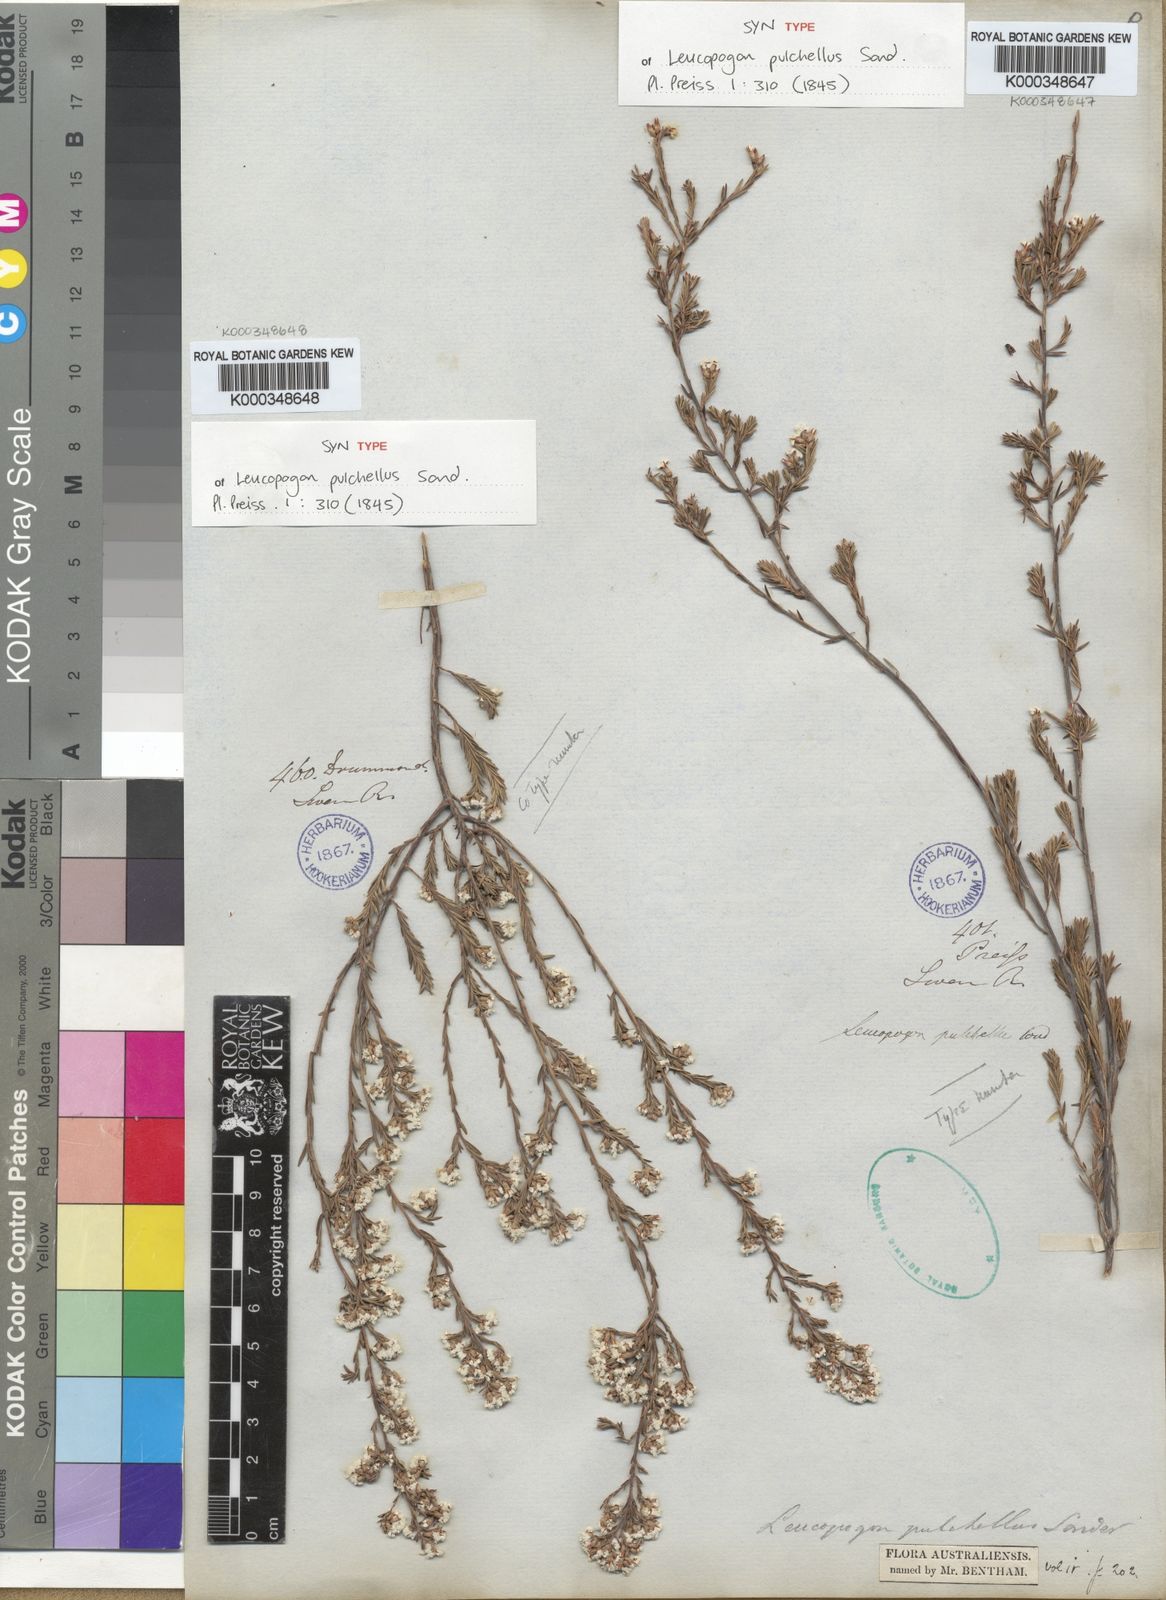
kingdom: Plantae
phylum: Tracheophyta
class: Magnoliopsida
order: Ericales
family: Ericaceae
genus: Leucopogon
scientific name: Leucopogon pulchellus
